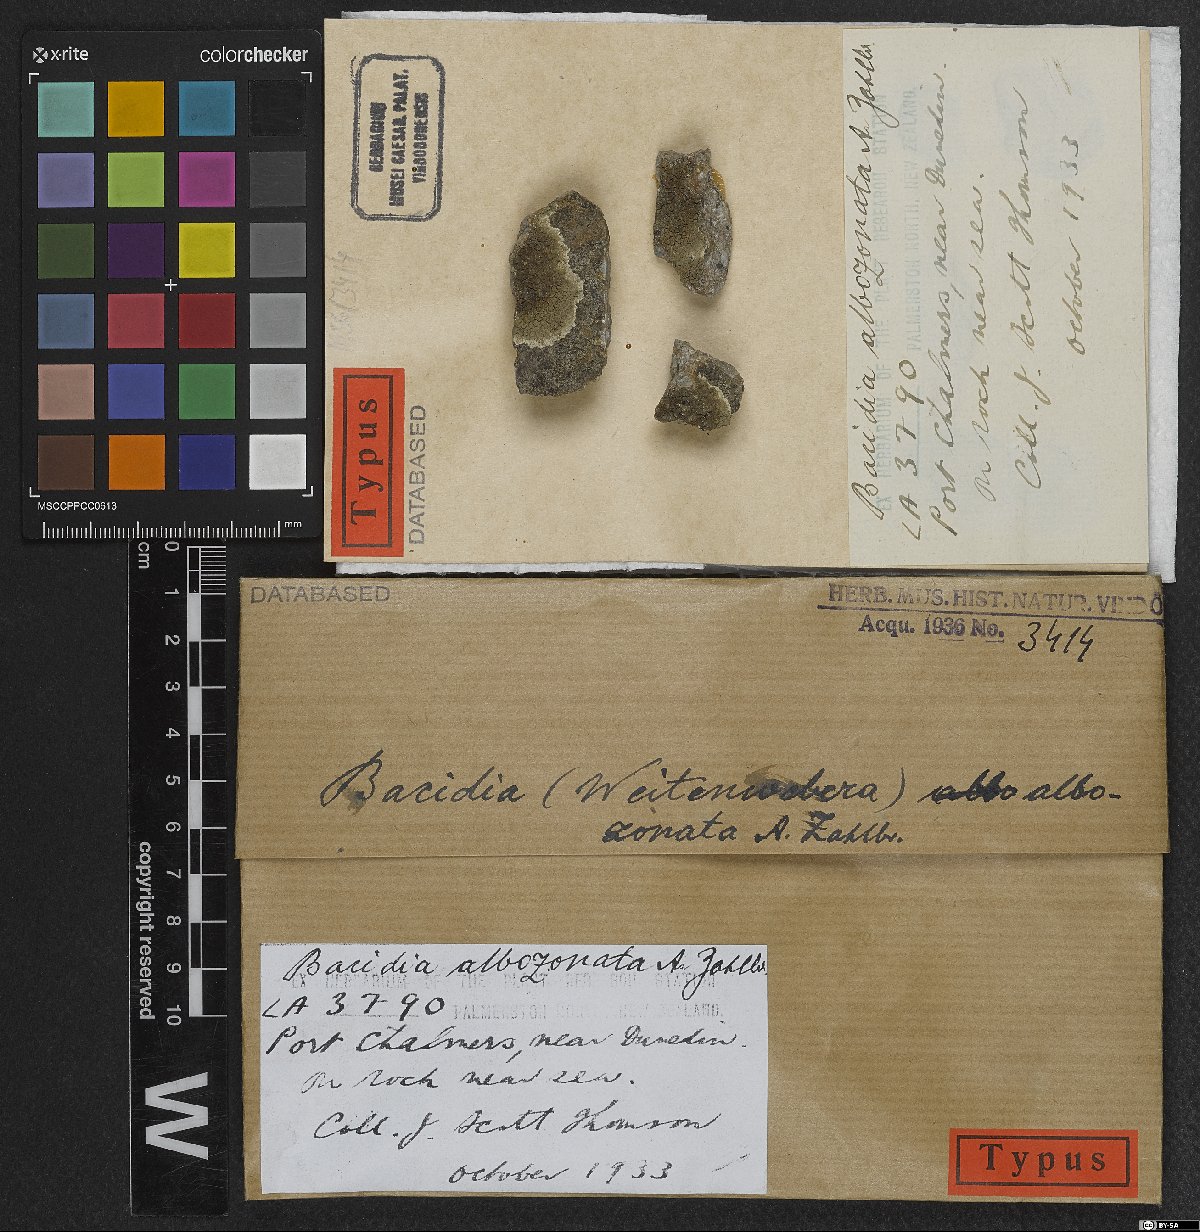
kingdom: Fungi
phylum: Ascomycota
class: Lecanoromycetes
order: Lecanorales
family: Ramalinaceae
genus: Bacidia
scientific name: Bacidia
